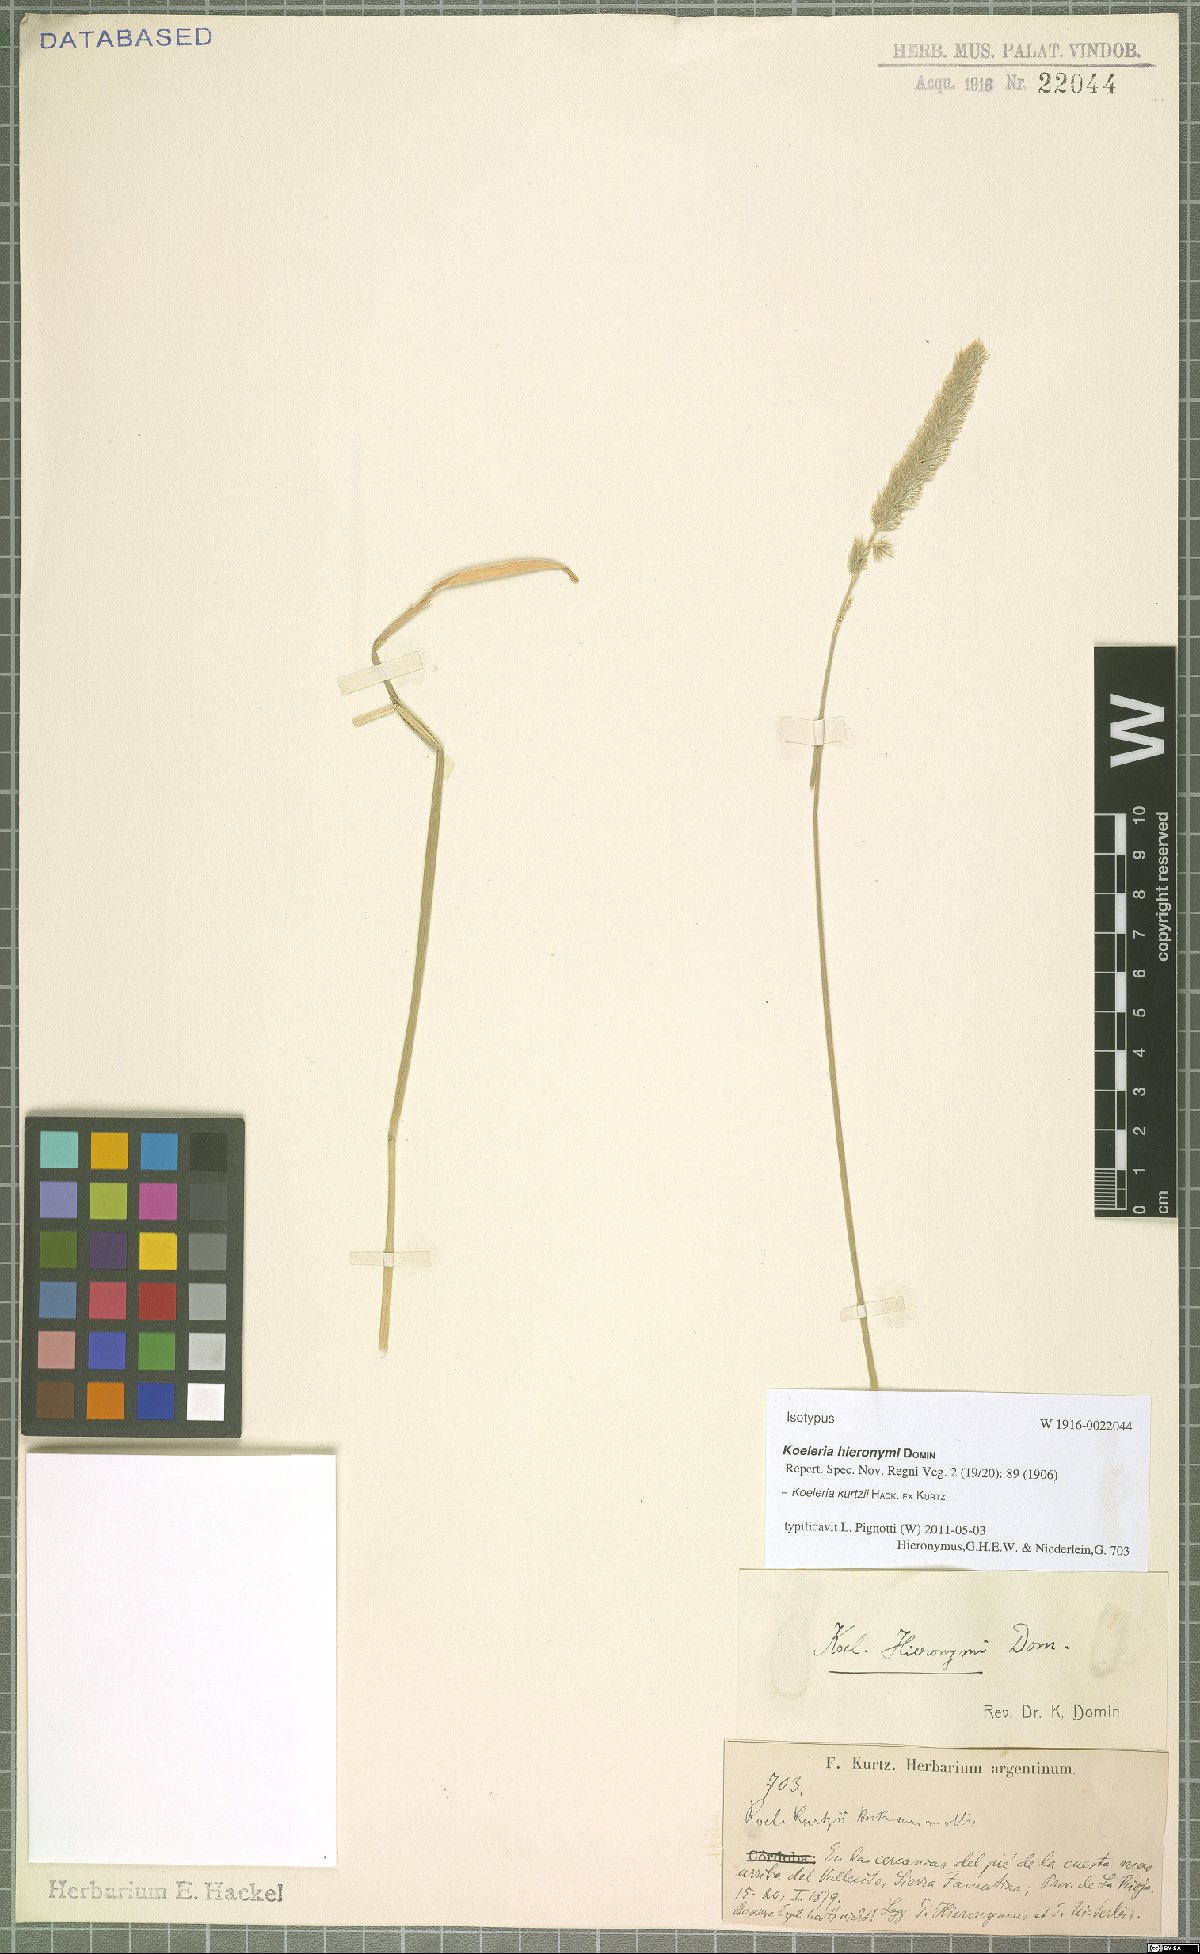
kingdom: Plantae
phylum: Tracheophyta
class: Liliopsida
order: Poales
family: Poaceae
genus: Koeleria
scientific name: Koeleria kurtzii
